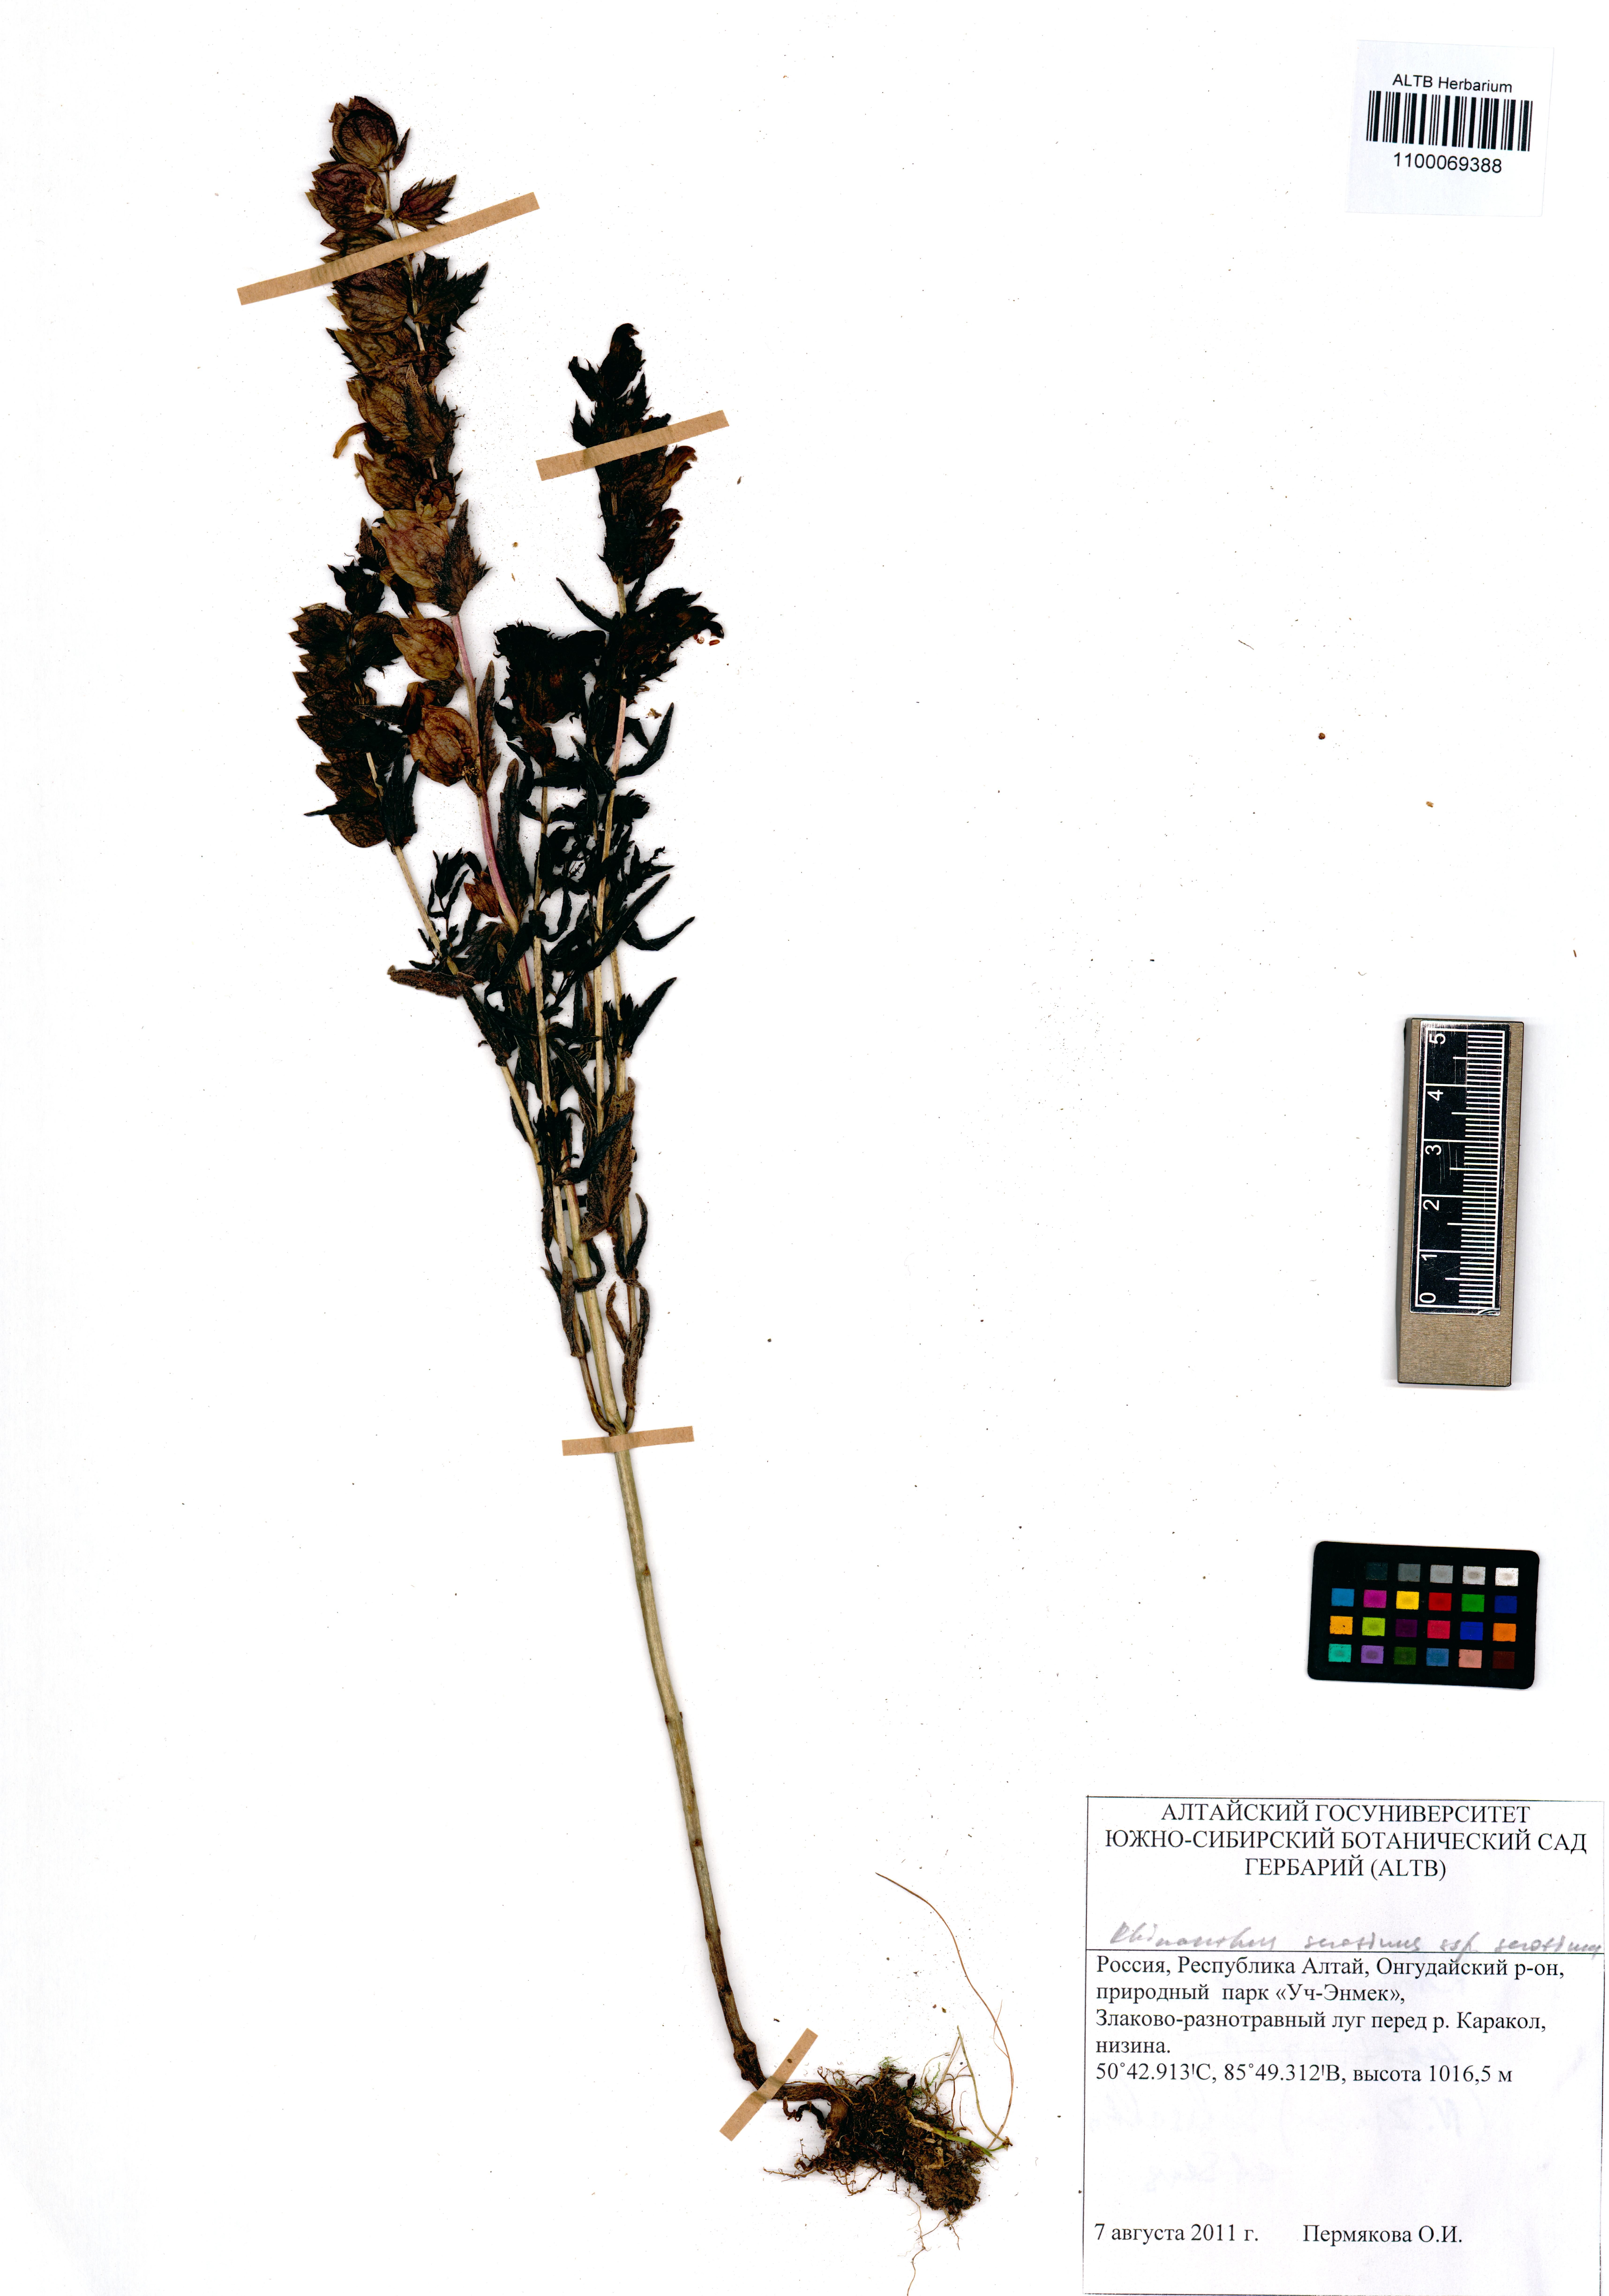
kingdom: Plantae
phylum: Tracheophyta
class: Magnoliopsida
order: Lamiales
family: Orobanchaceae
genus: Rhinanthus
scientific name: Rhinanthus serotinus
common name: Late-flowering yellow rattle
